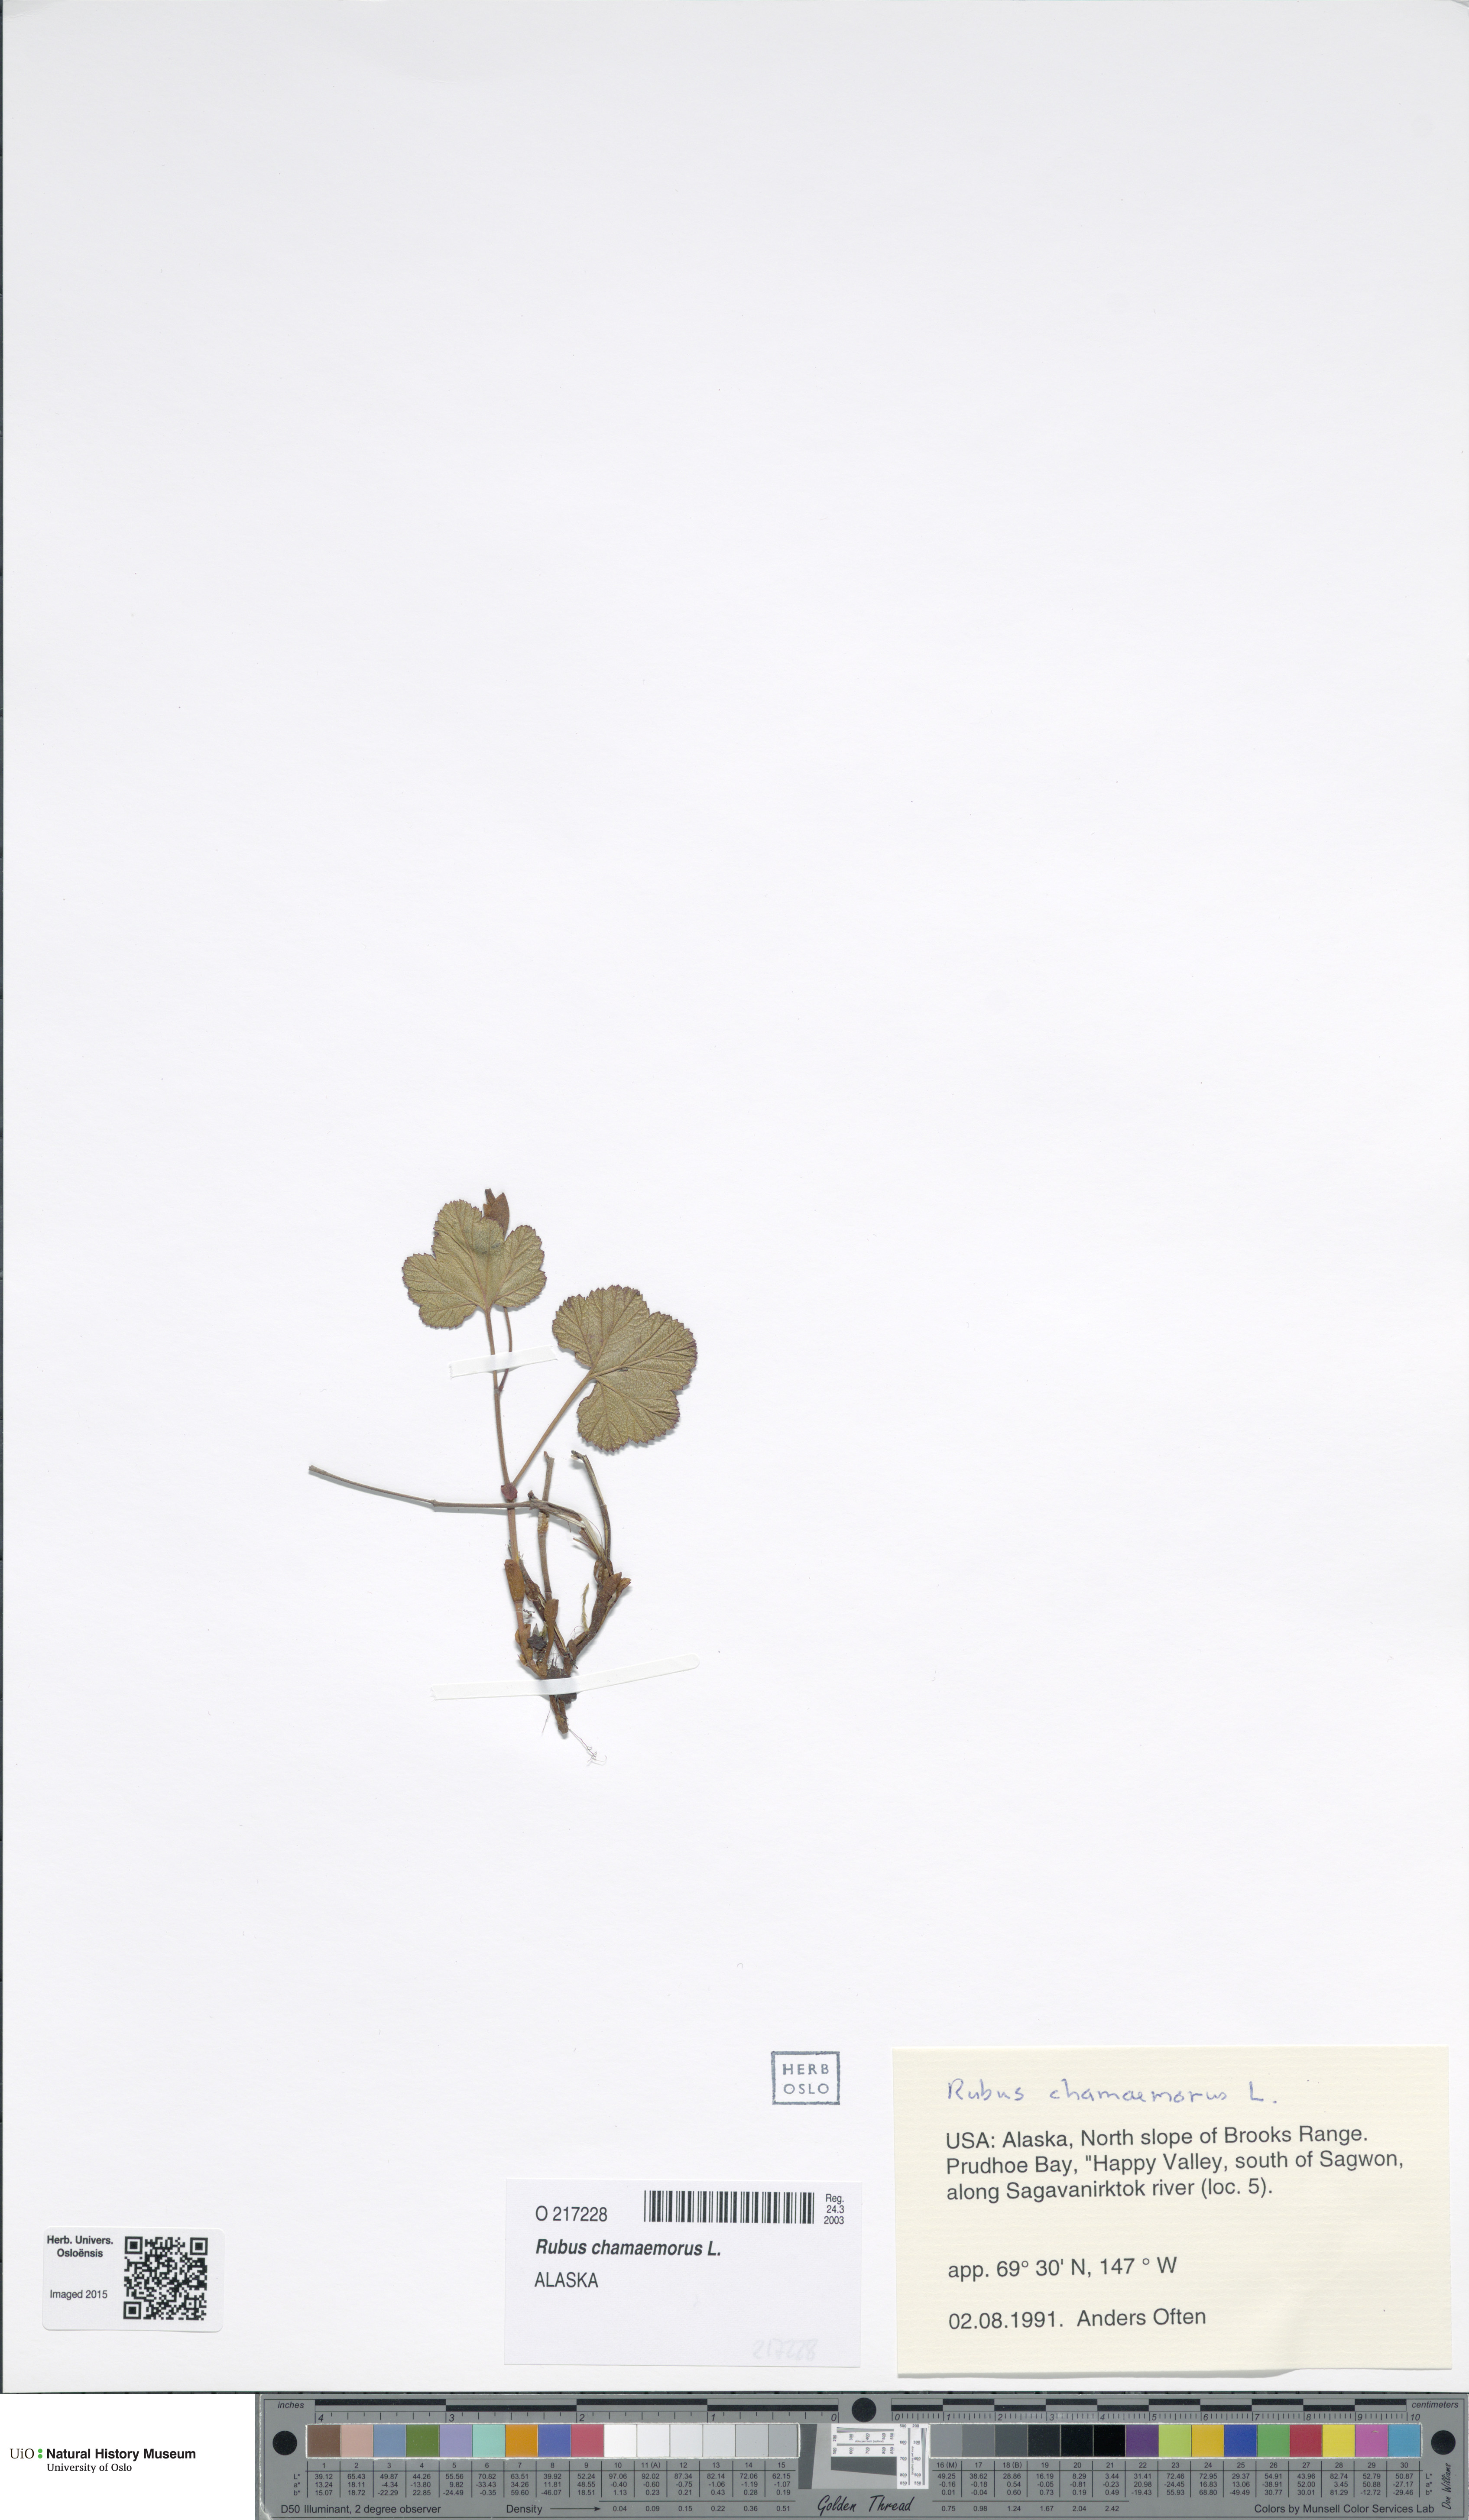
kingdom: Plantae
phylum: Tracheophyta
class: Magnoliopsida
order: Rosales
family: Rosaceae
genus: Rubus
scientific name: Rubus chamaemorus
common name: Cloudberry
